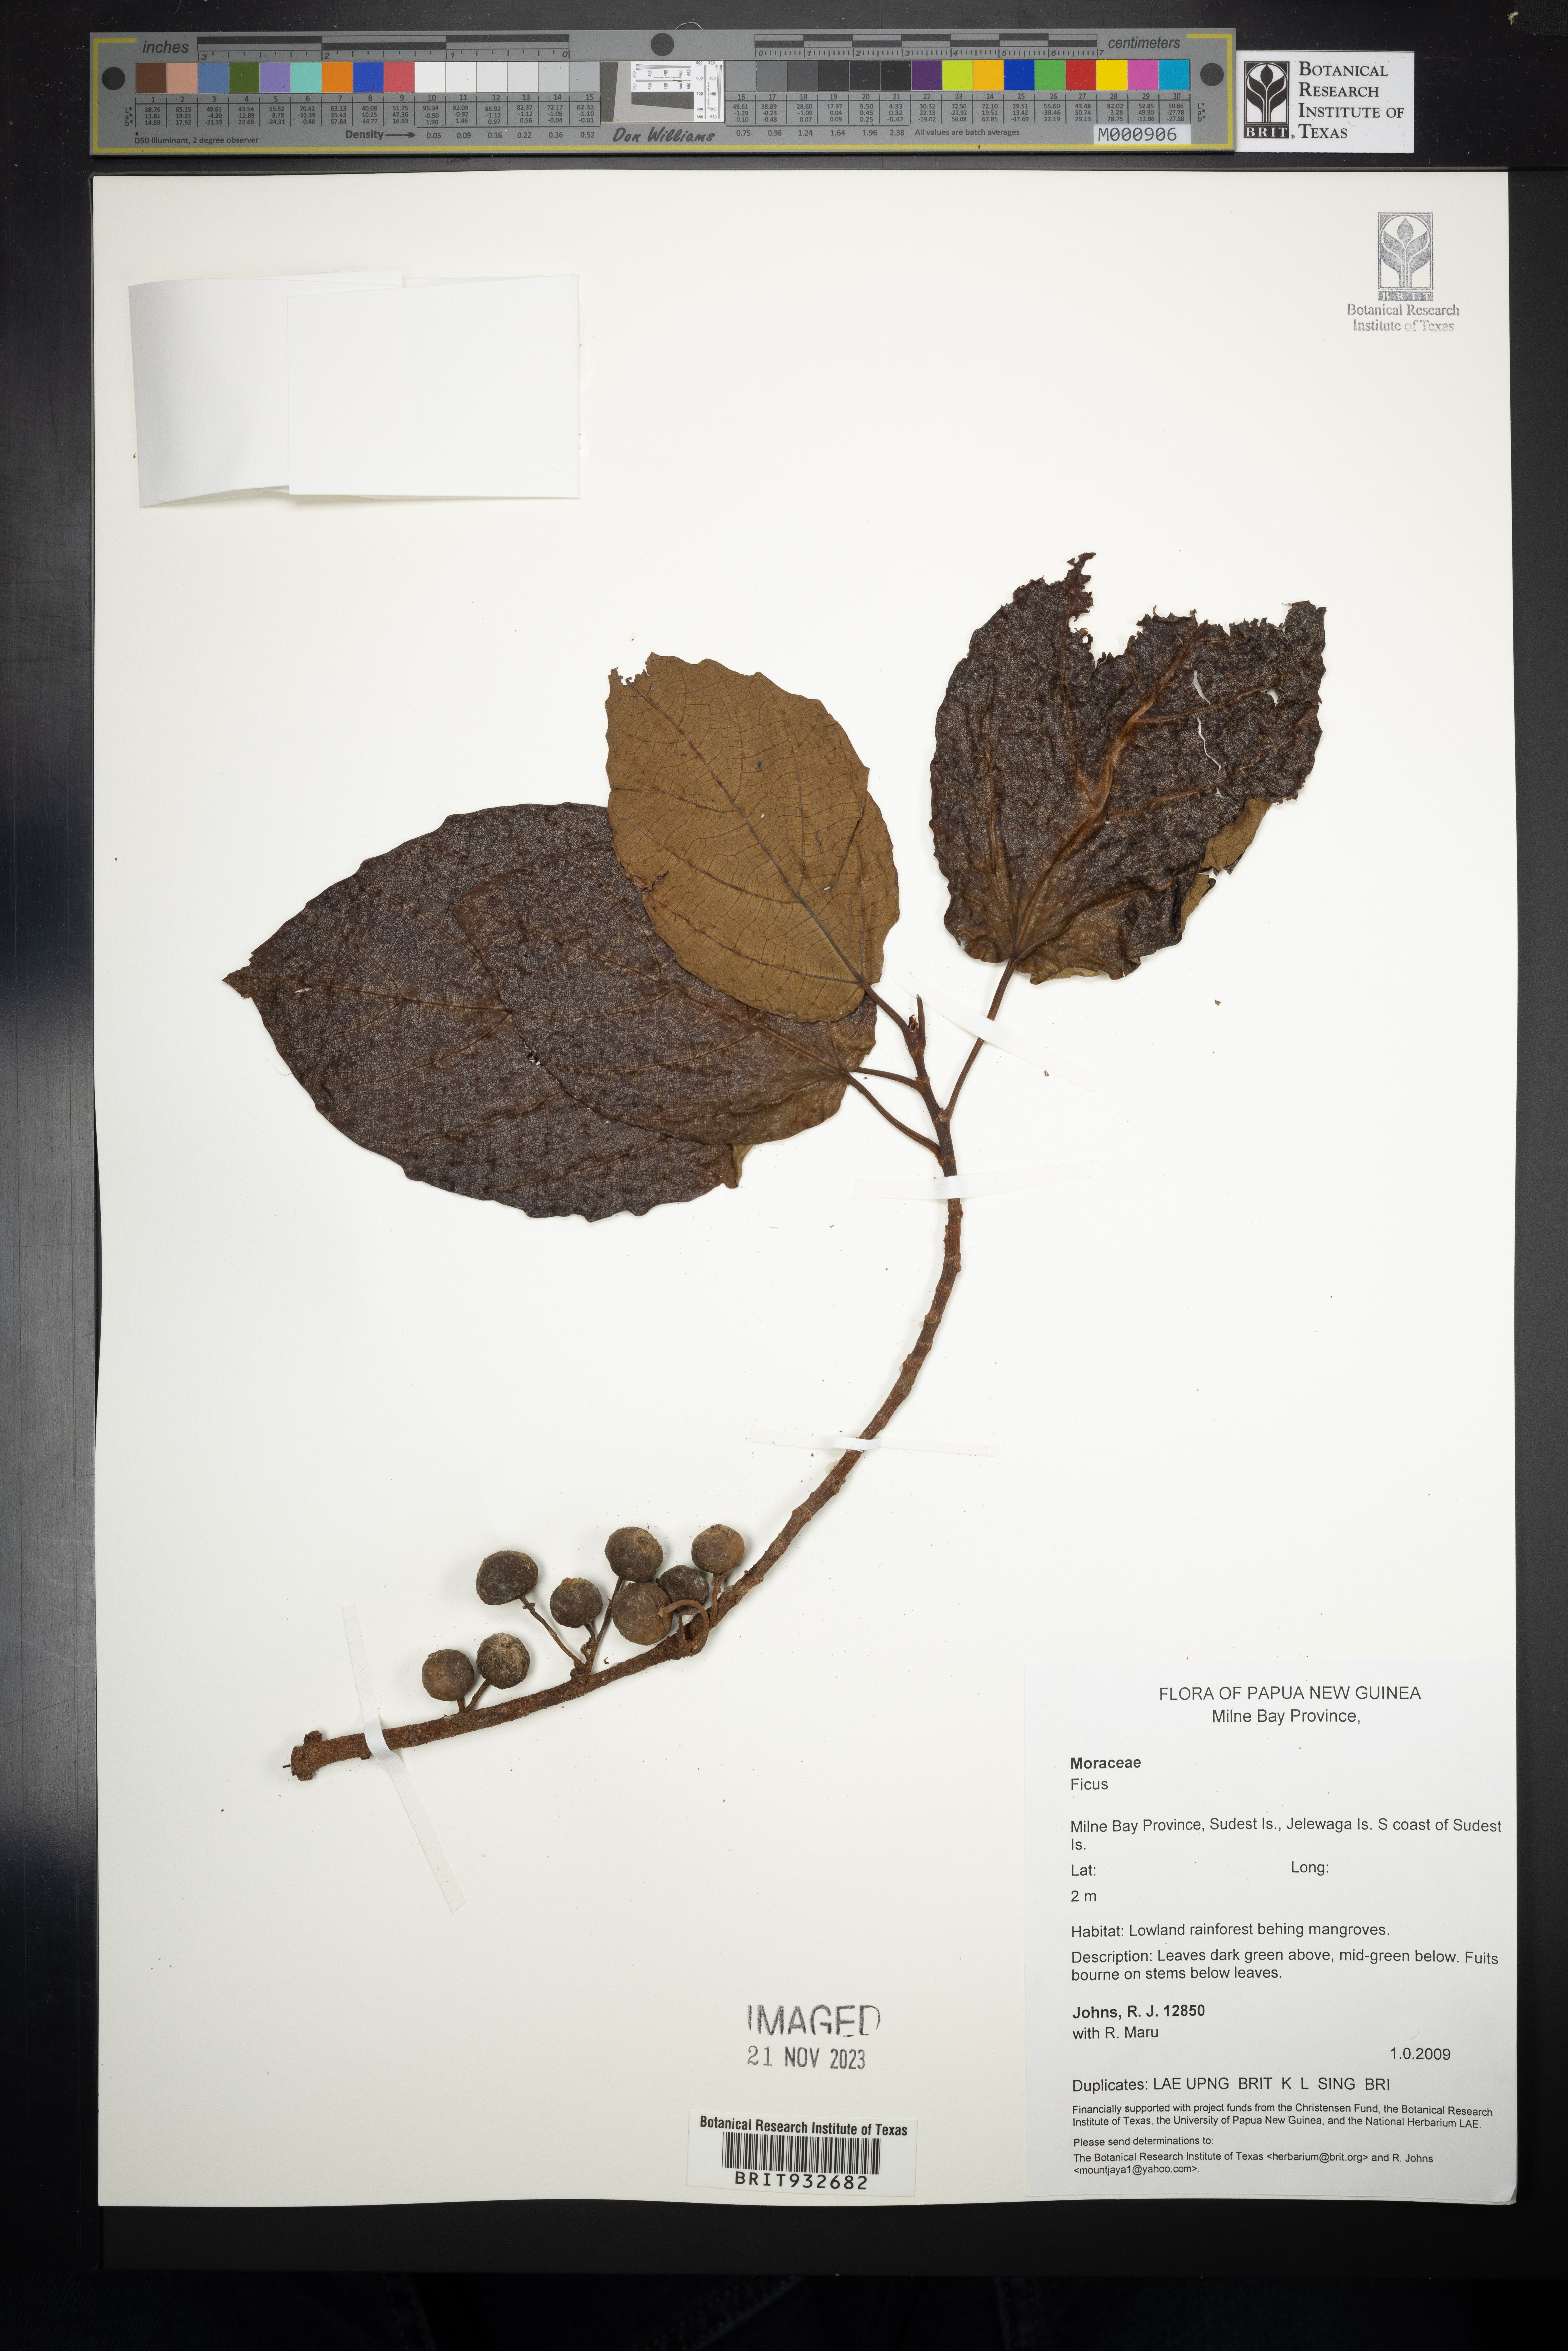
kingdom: Plantae
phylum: Tracheophyta
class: Magnoliopsida
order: Rosales
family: Moraceae
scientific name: Moraceae
